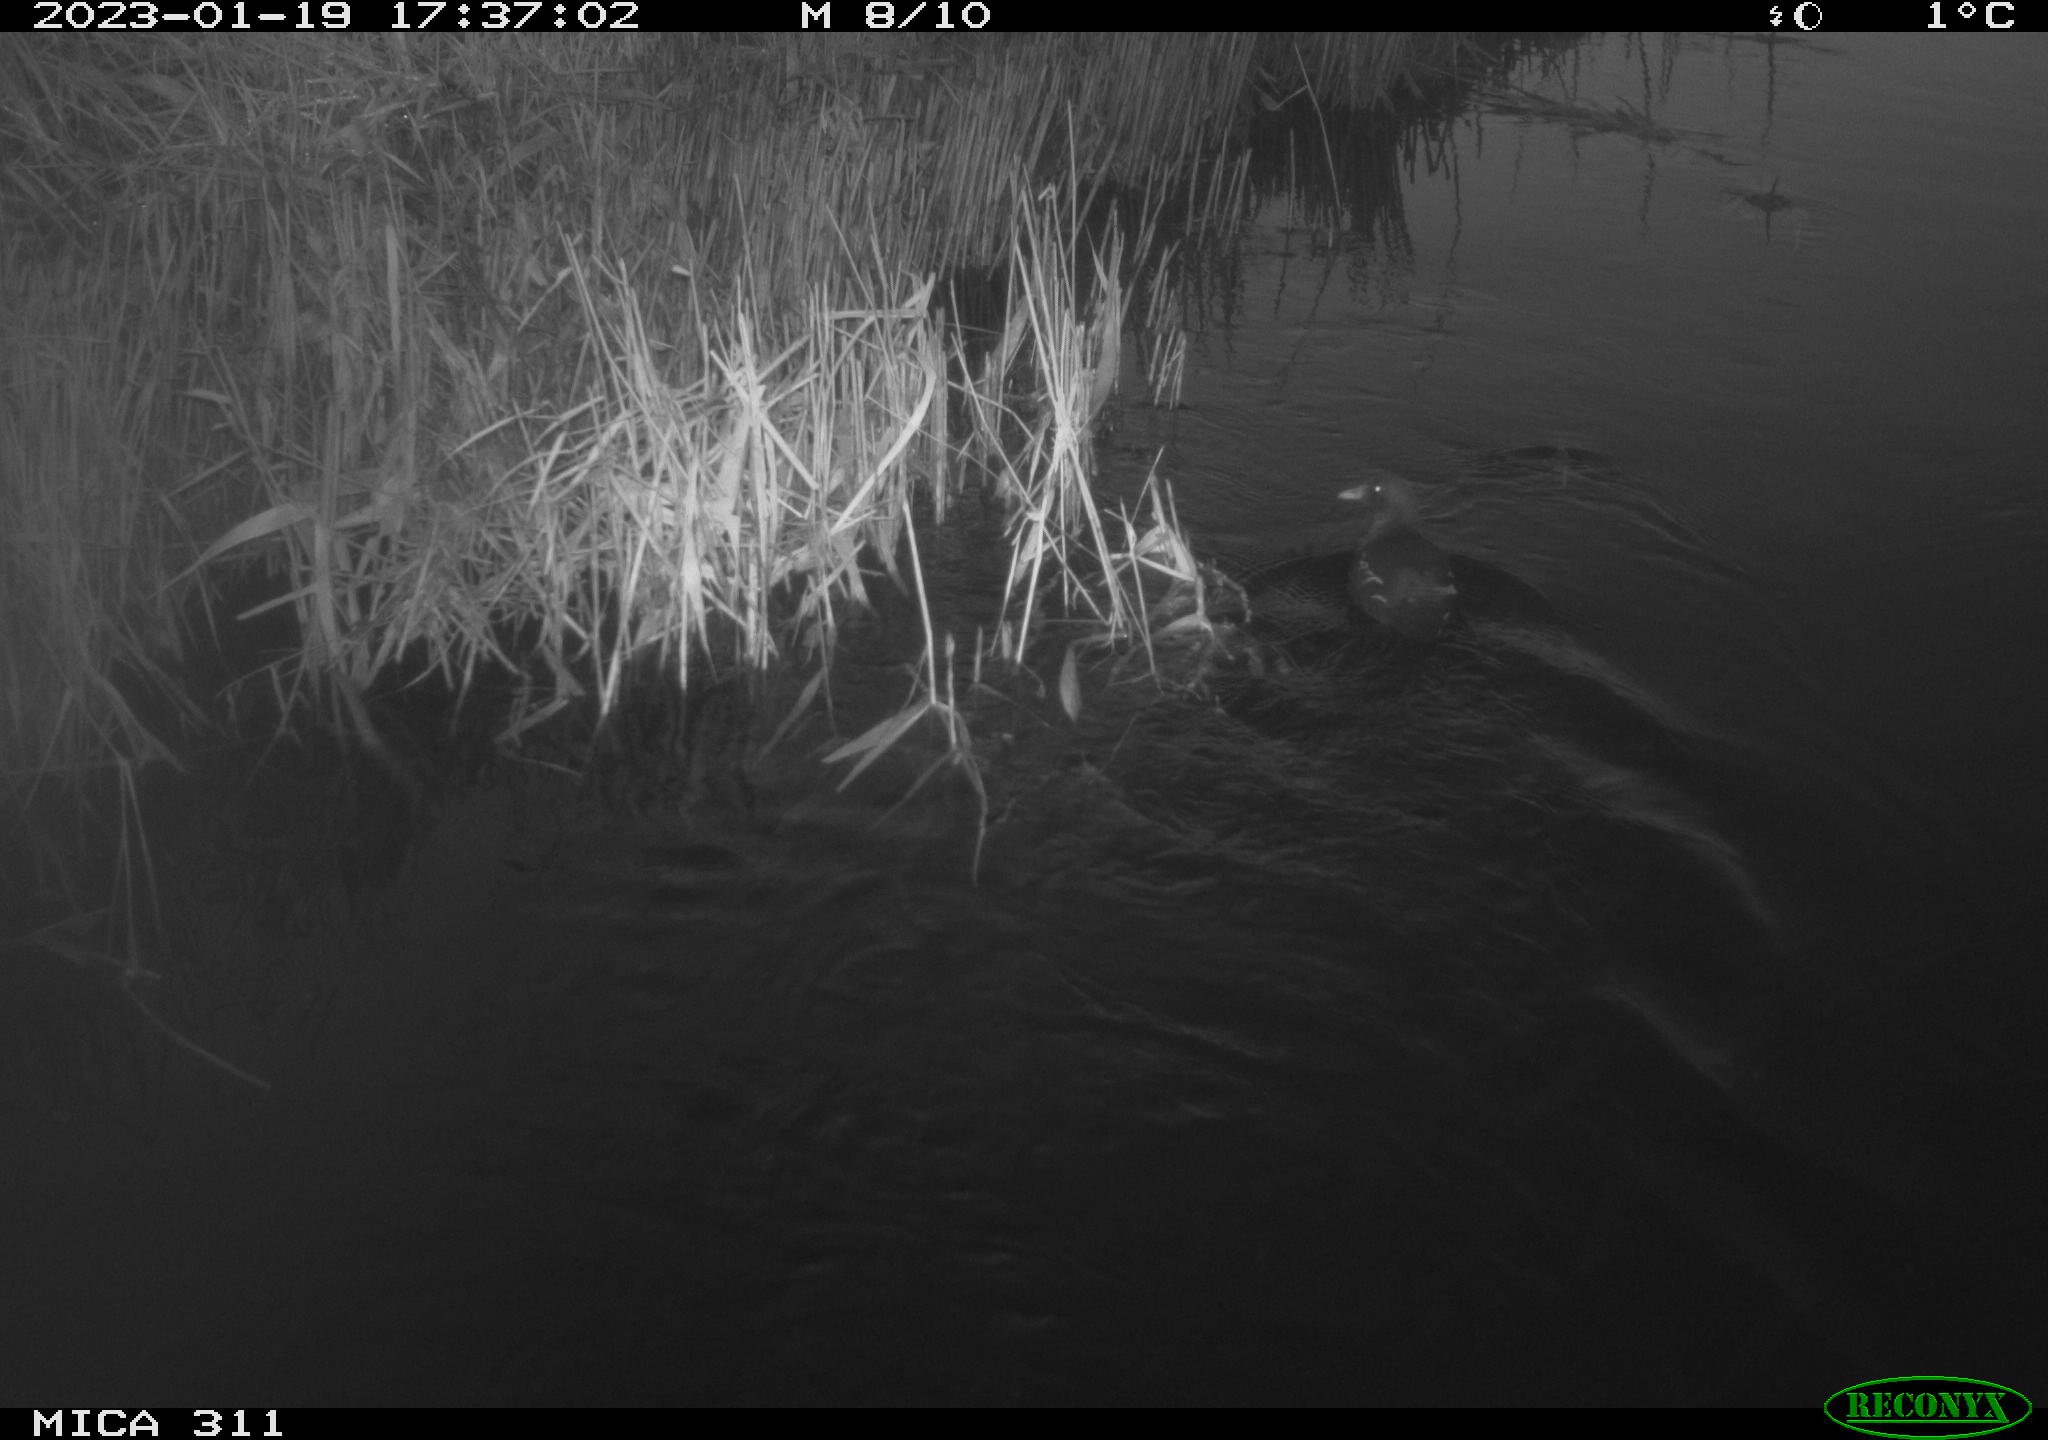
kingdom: Animalia
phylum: Chordata
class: Aves
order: Gruiformes
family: Rallidae
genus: Gallinula
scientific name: Gallinula chloropus
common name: Common moorhen
